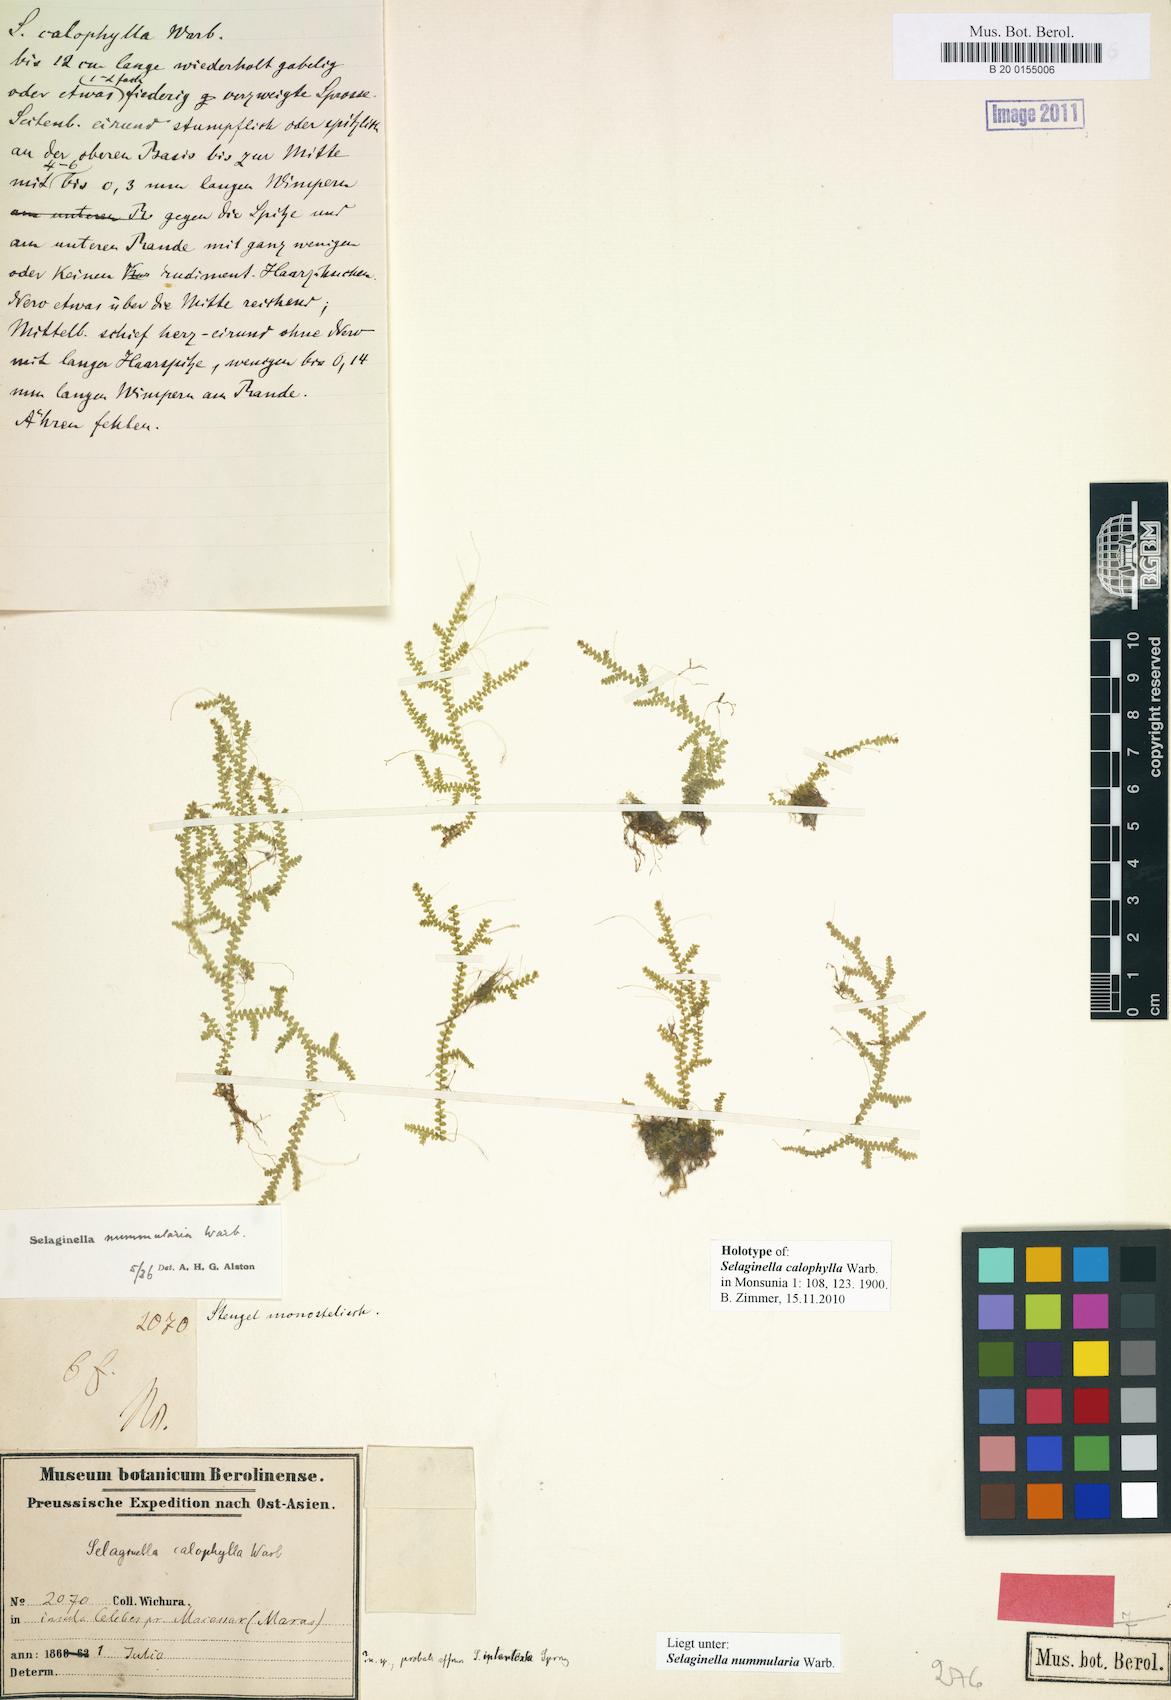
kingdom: Plantae
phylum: Tracheophyta
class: Lycopodiopsida
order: Selaginellales
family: Selaginellaceae
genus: Selaginella
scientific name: Selaginella nummularia
